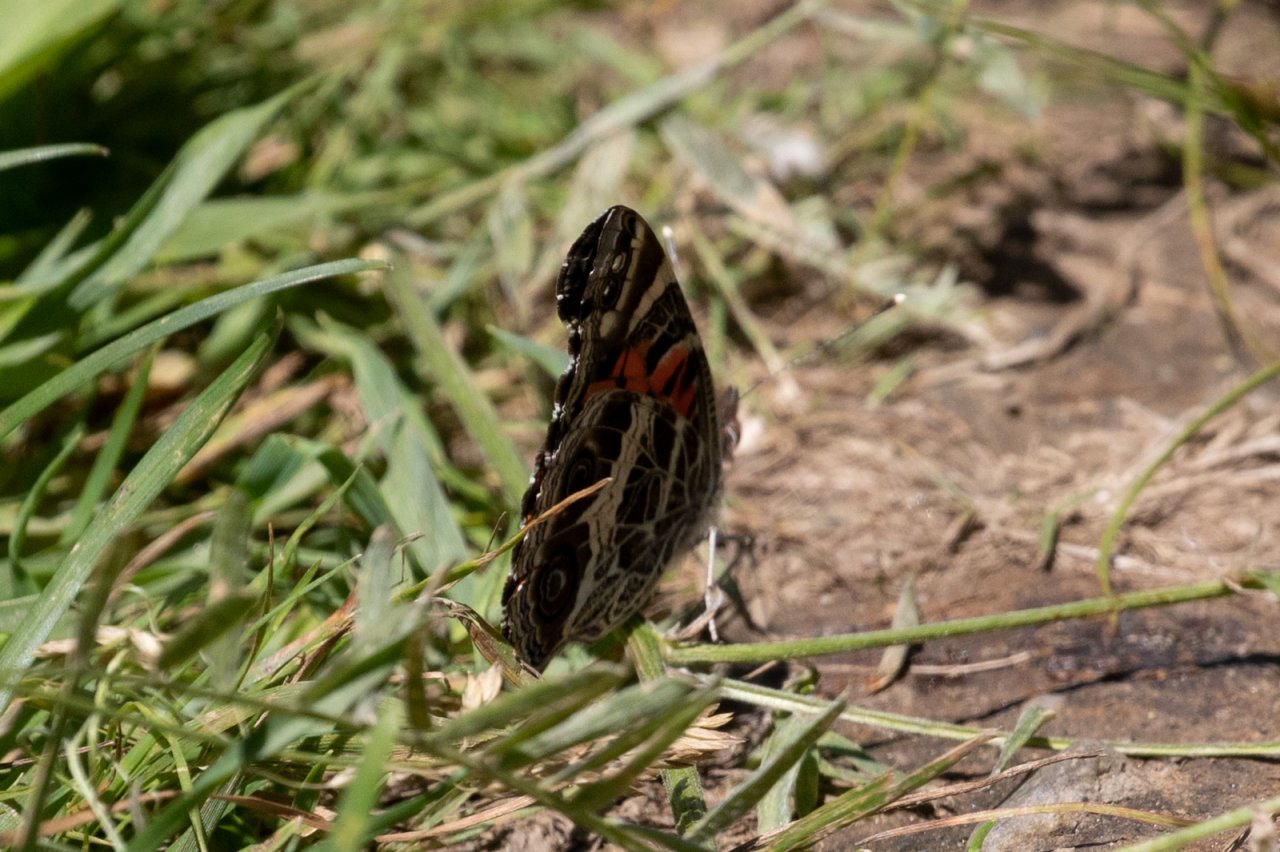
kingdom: Animalia
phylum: Arthropoda
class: Insecta
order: Lepidoptera
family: Nymphalidae
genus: Vanessa
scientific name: Vanessa virginiensis
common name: American Lady
